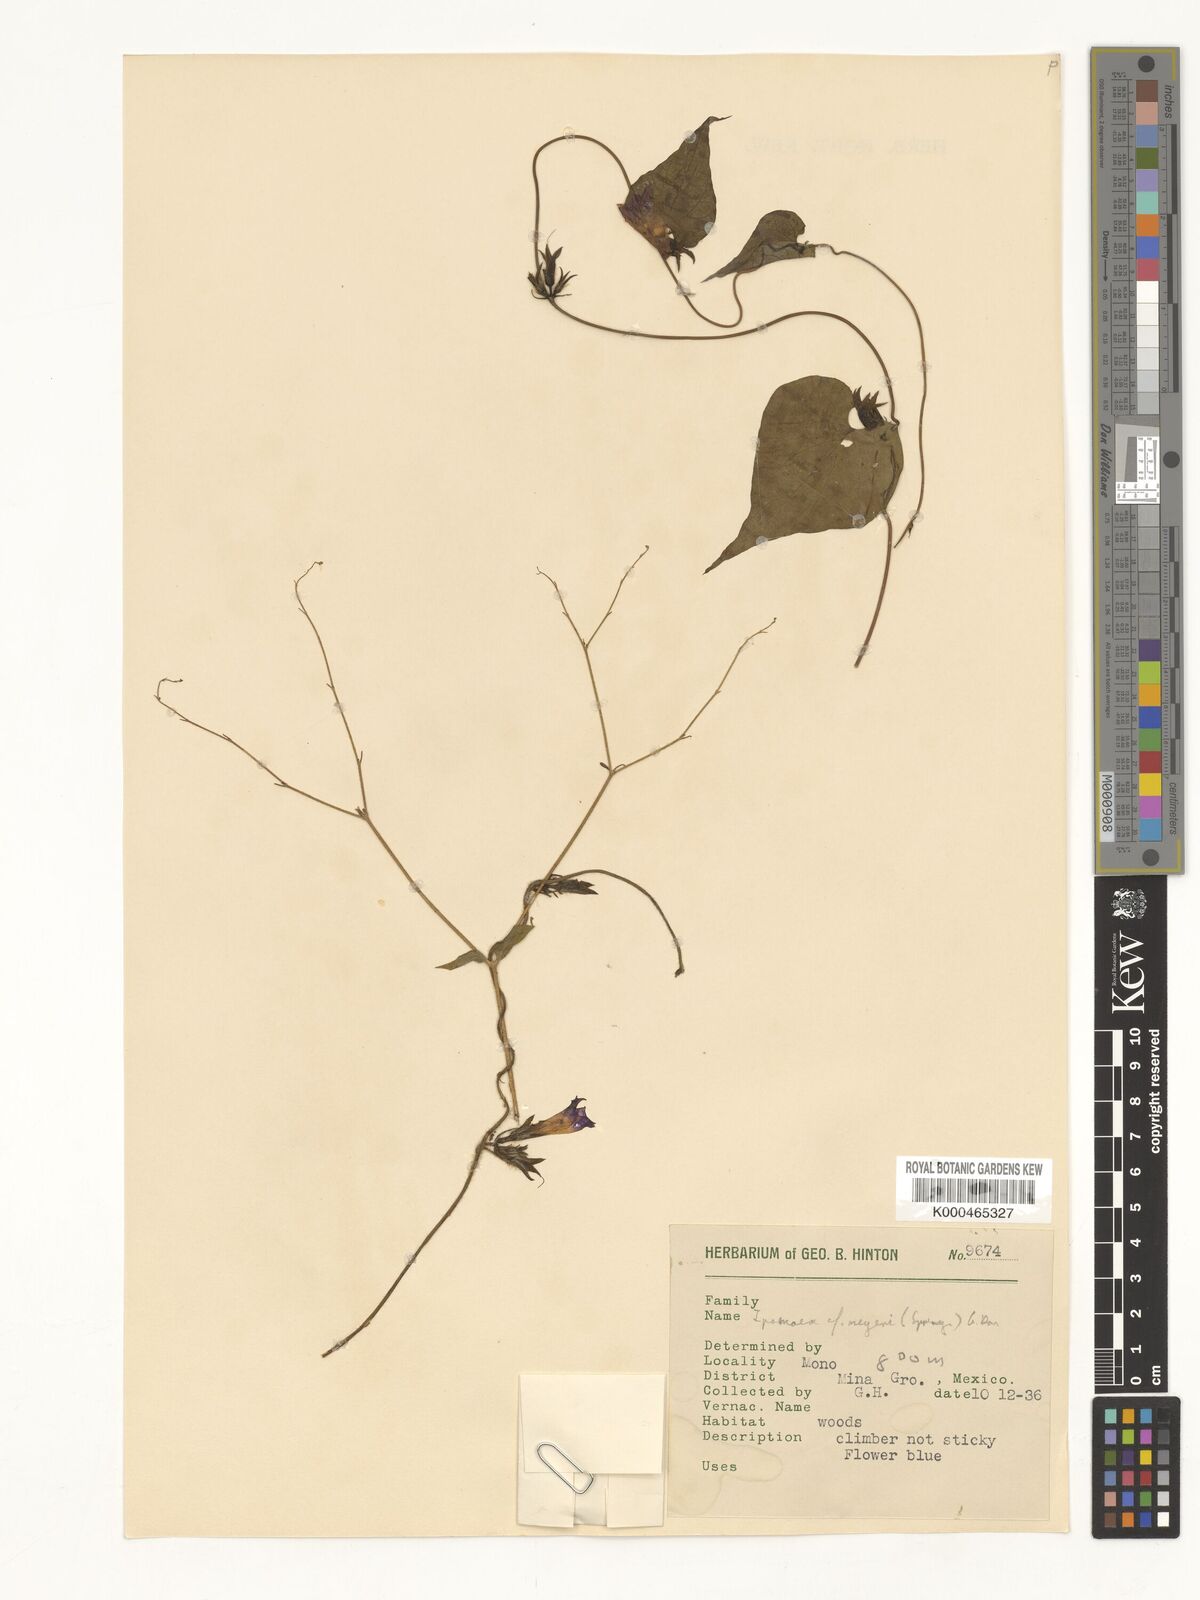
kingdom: Plantae
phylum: Tracheophyta
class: Magnoliopsida
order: Solanales
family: Convolvulaceae
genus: Ipomoea
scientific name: Ipomoea meyeri
